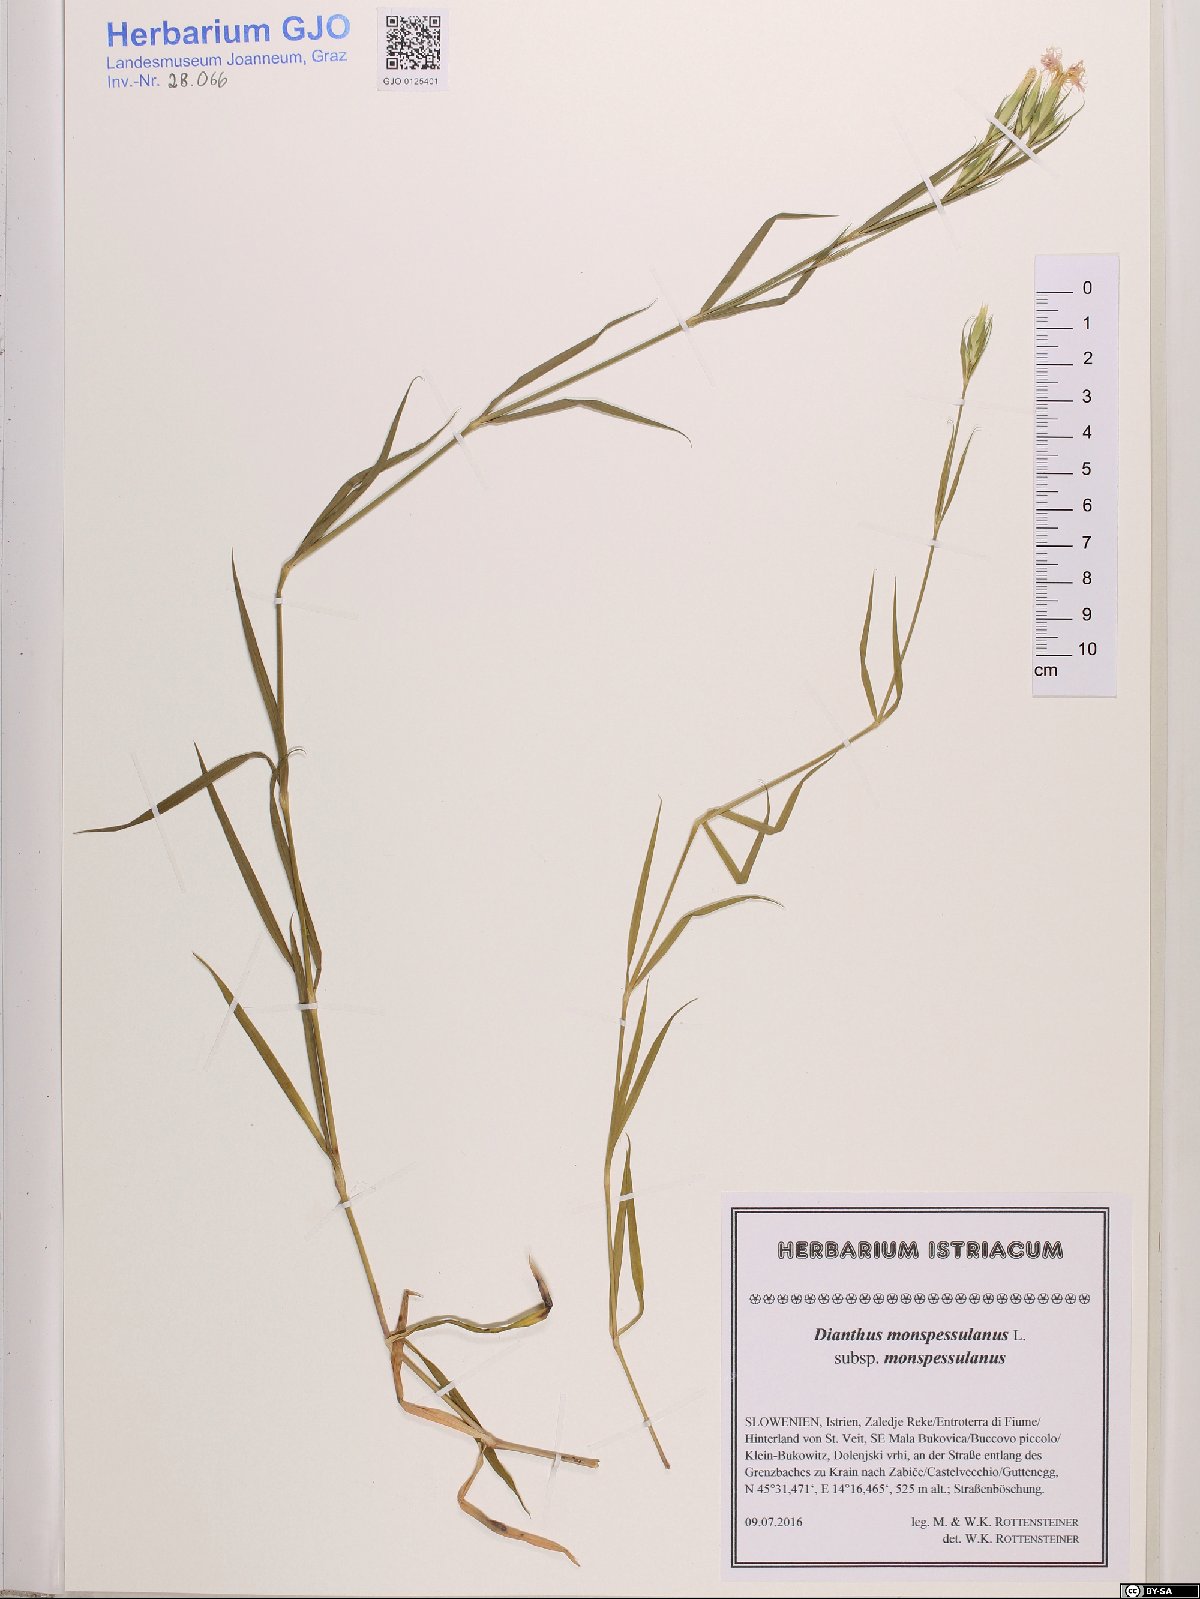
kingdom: Plantae
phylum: Tracheophyta
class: Magnoliopsida
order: Caryophyllales
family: Caryophyllaceae
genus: Dianthus
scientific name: Dianthus hyssopifolius
